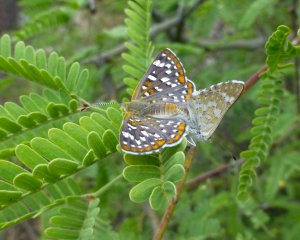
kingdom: Animalia
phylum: Arthropoda
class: Insecta
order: Lepidoptera
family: Riodinidae
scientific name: Riodinidae
